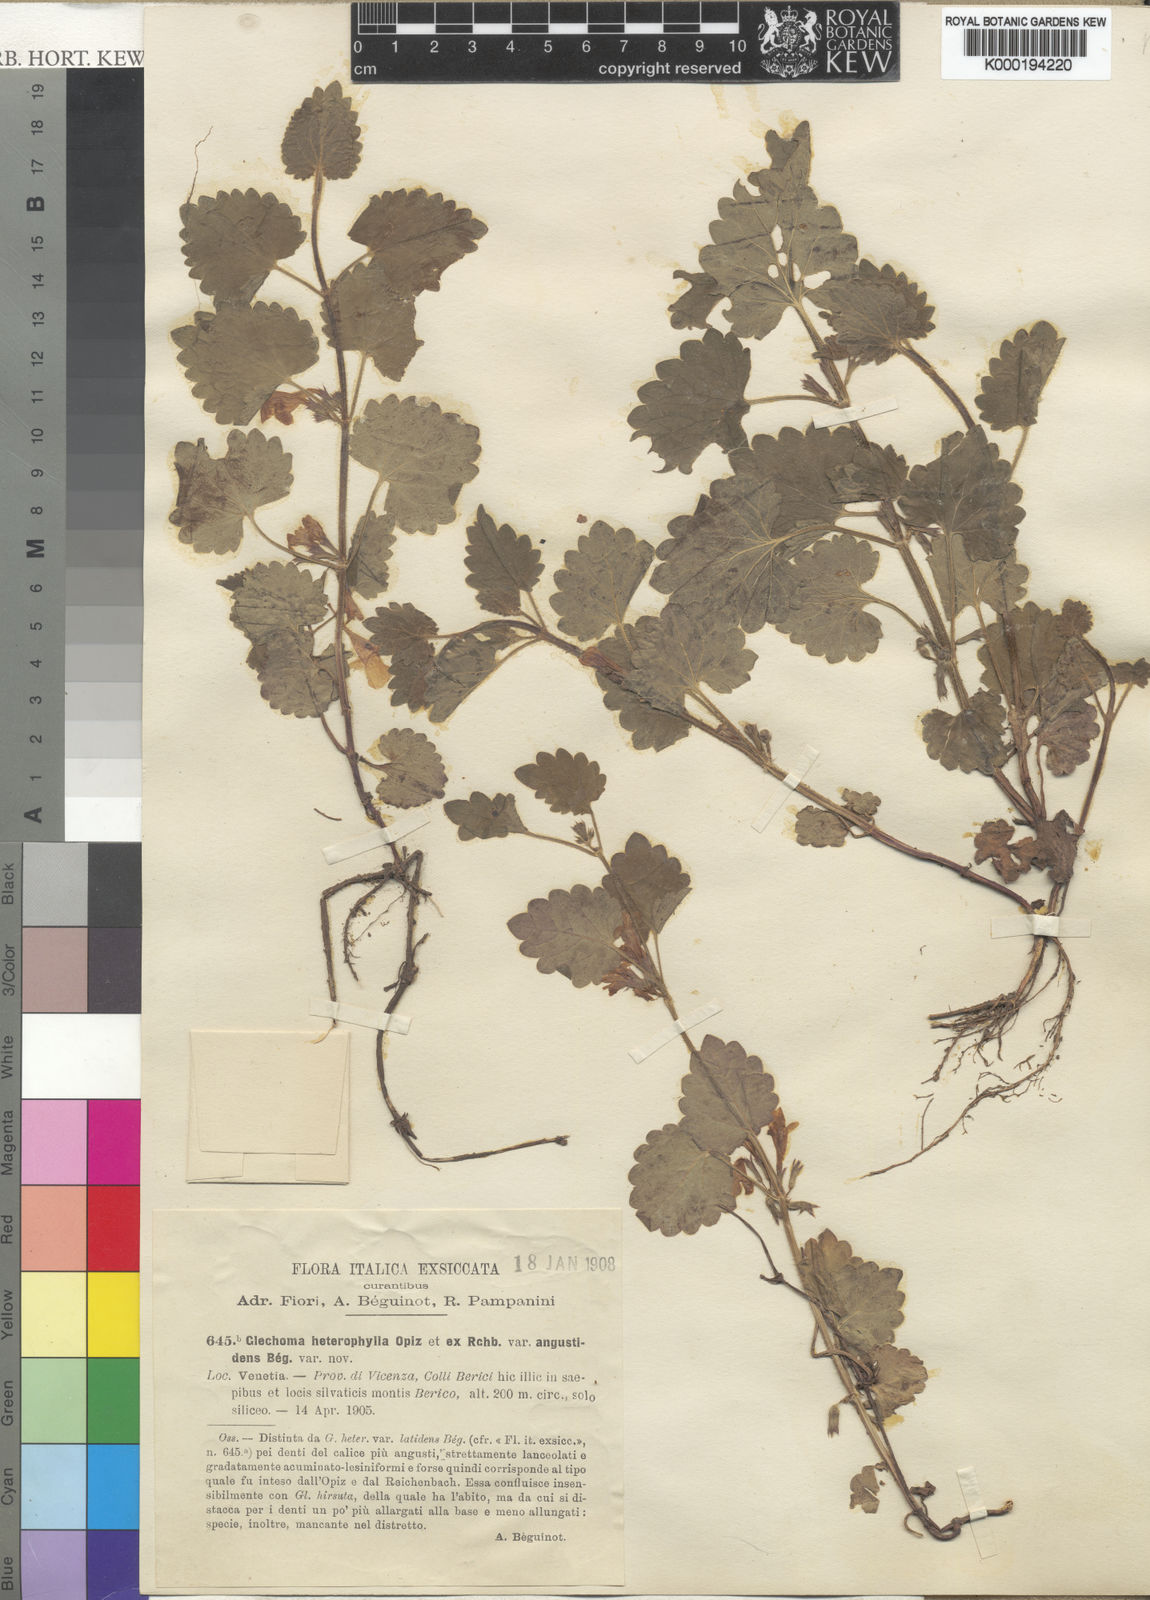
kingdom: Plantae
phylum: Tracheophyta
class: Magnoliopsida
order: Lamiales
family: Lamiaceae
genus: Glechoma
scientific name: Glechoma hederacea
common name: Ground ivy
